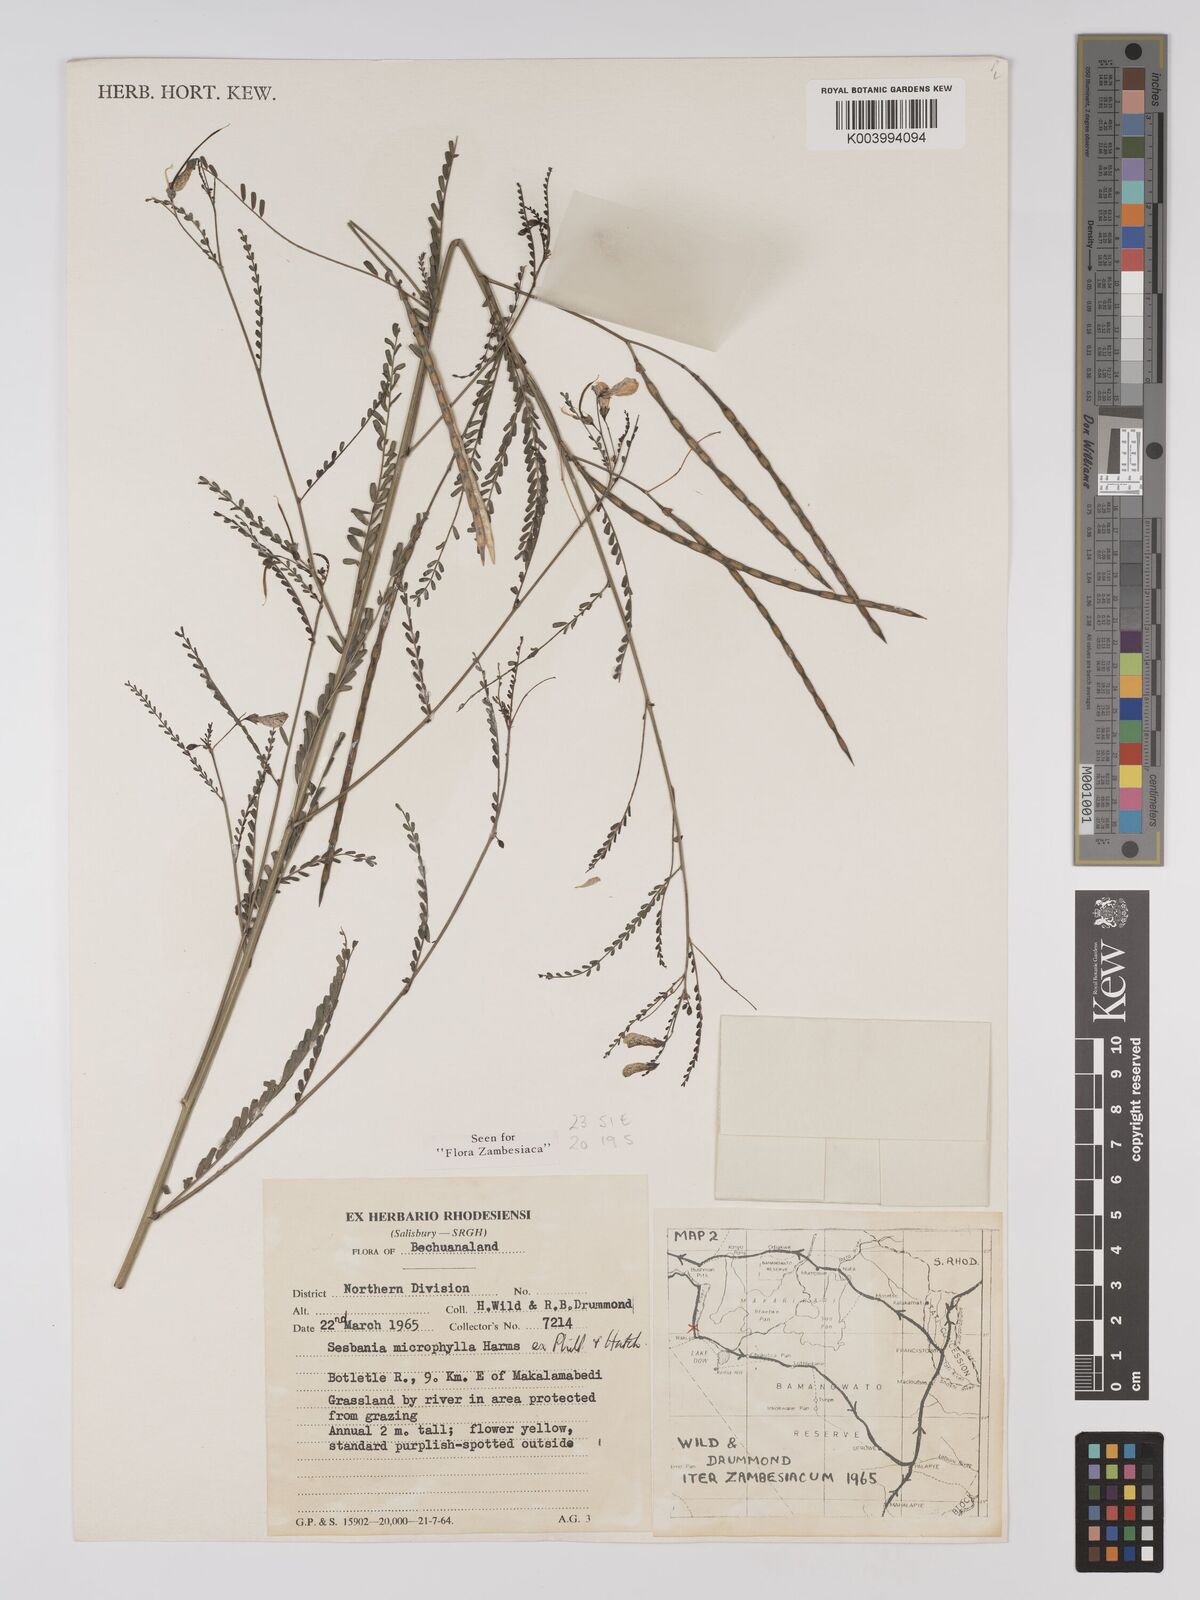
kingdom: Plantae
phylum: Tracheophyta
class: Magnoliopsida
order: Fabales
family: Fabaceae
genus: Sesbania
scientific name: Sesbania microphylla
